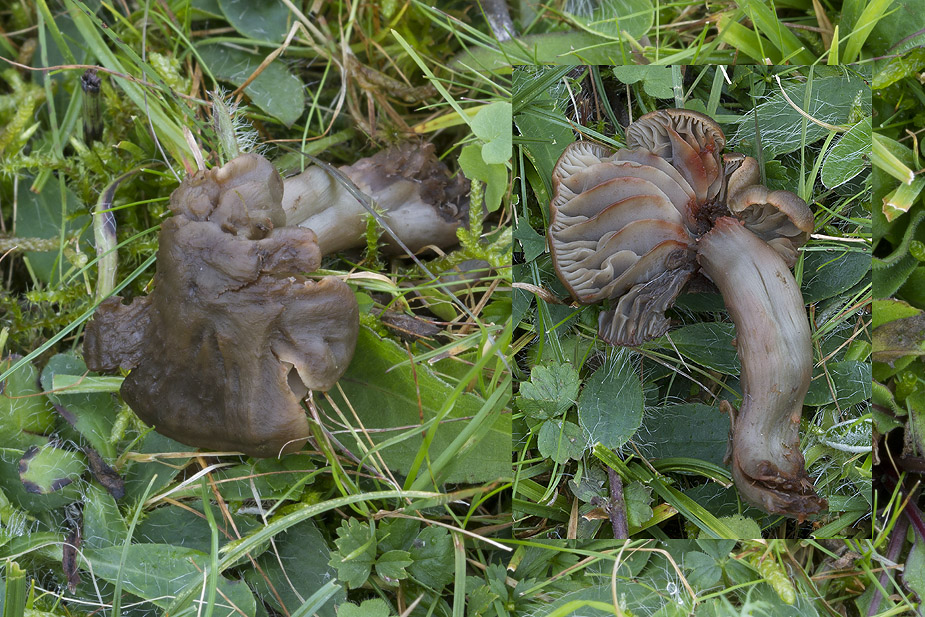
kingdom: Fungi
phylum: Basidiomycota
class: Agaricomycetes
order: Agaricales
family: Hygrophoraceae
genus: Neohygrocybe
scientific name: Neohygrocybe ovina
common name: rødmende vokshat
